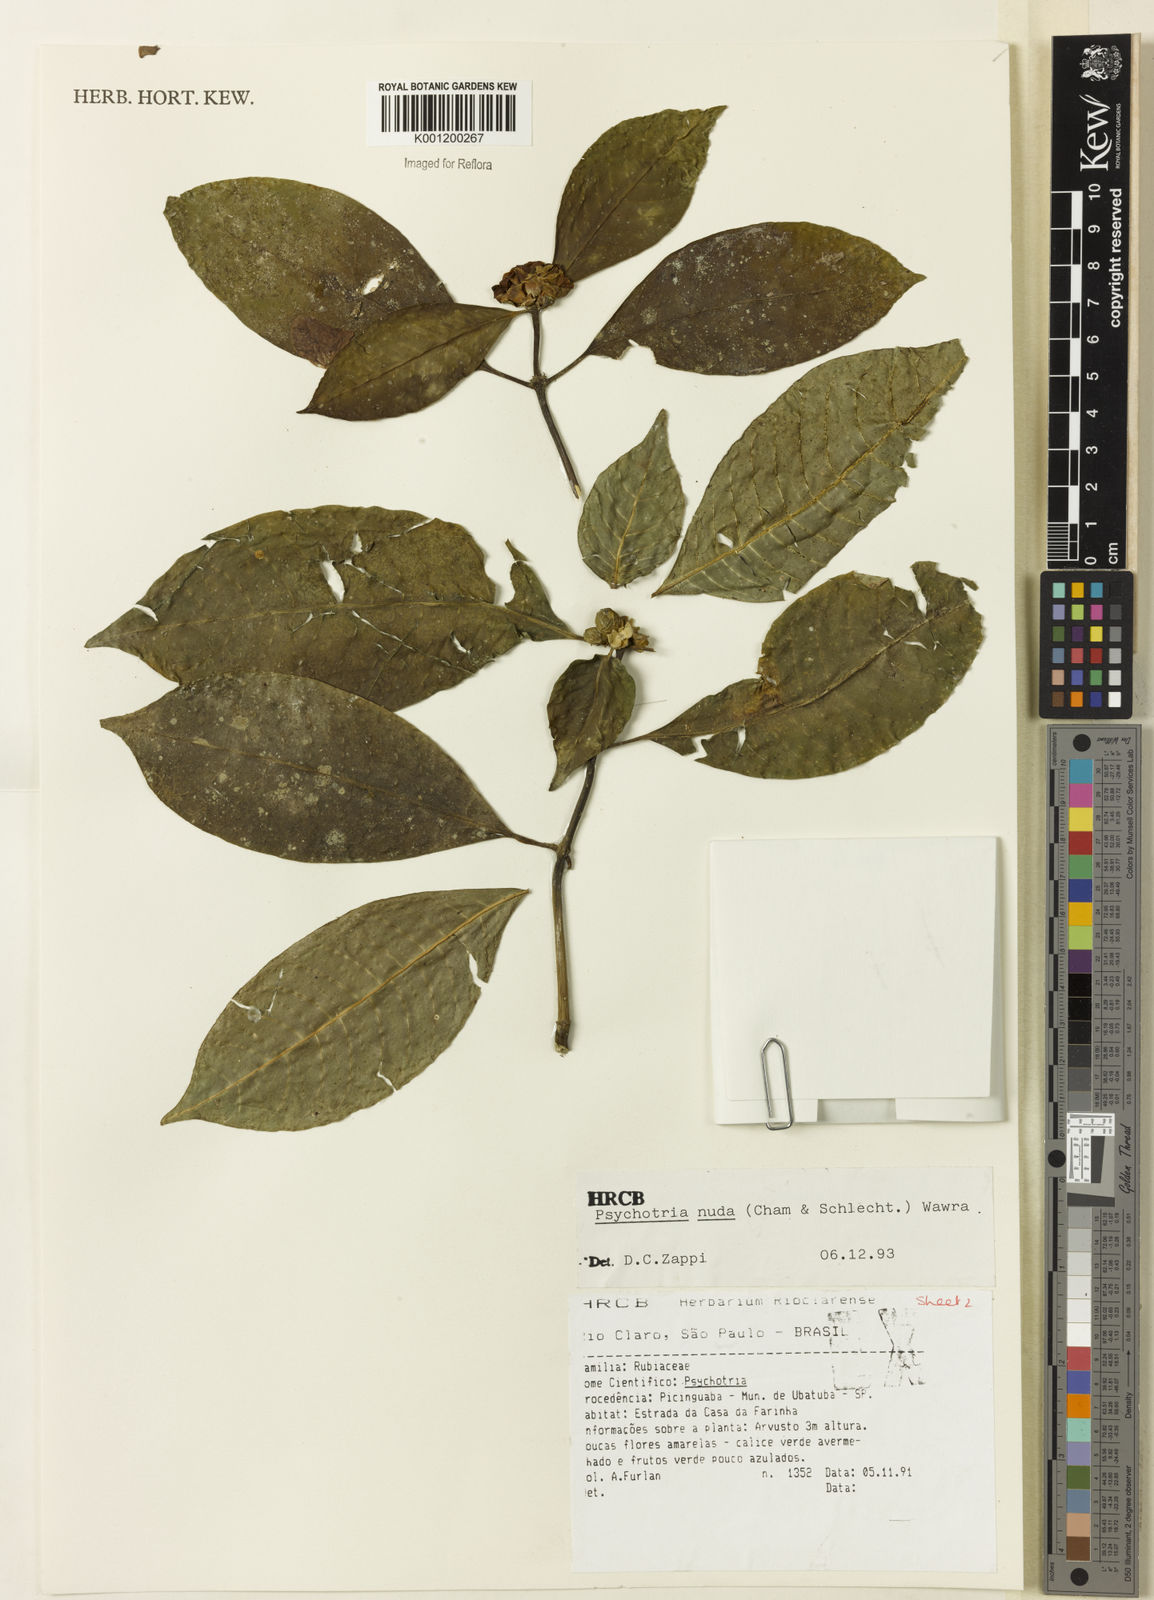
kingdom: Plantae
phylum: Tracheophyta
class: Magnoliopsida
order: Gentianales
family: Rubiaceae
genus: Psychotria
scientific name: Psychotria nuda
